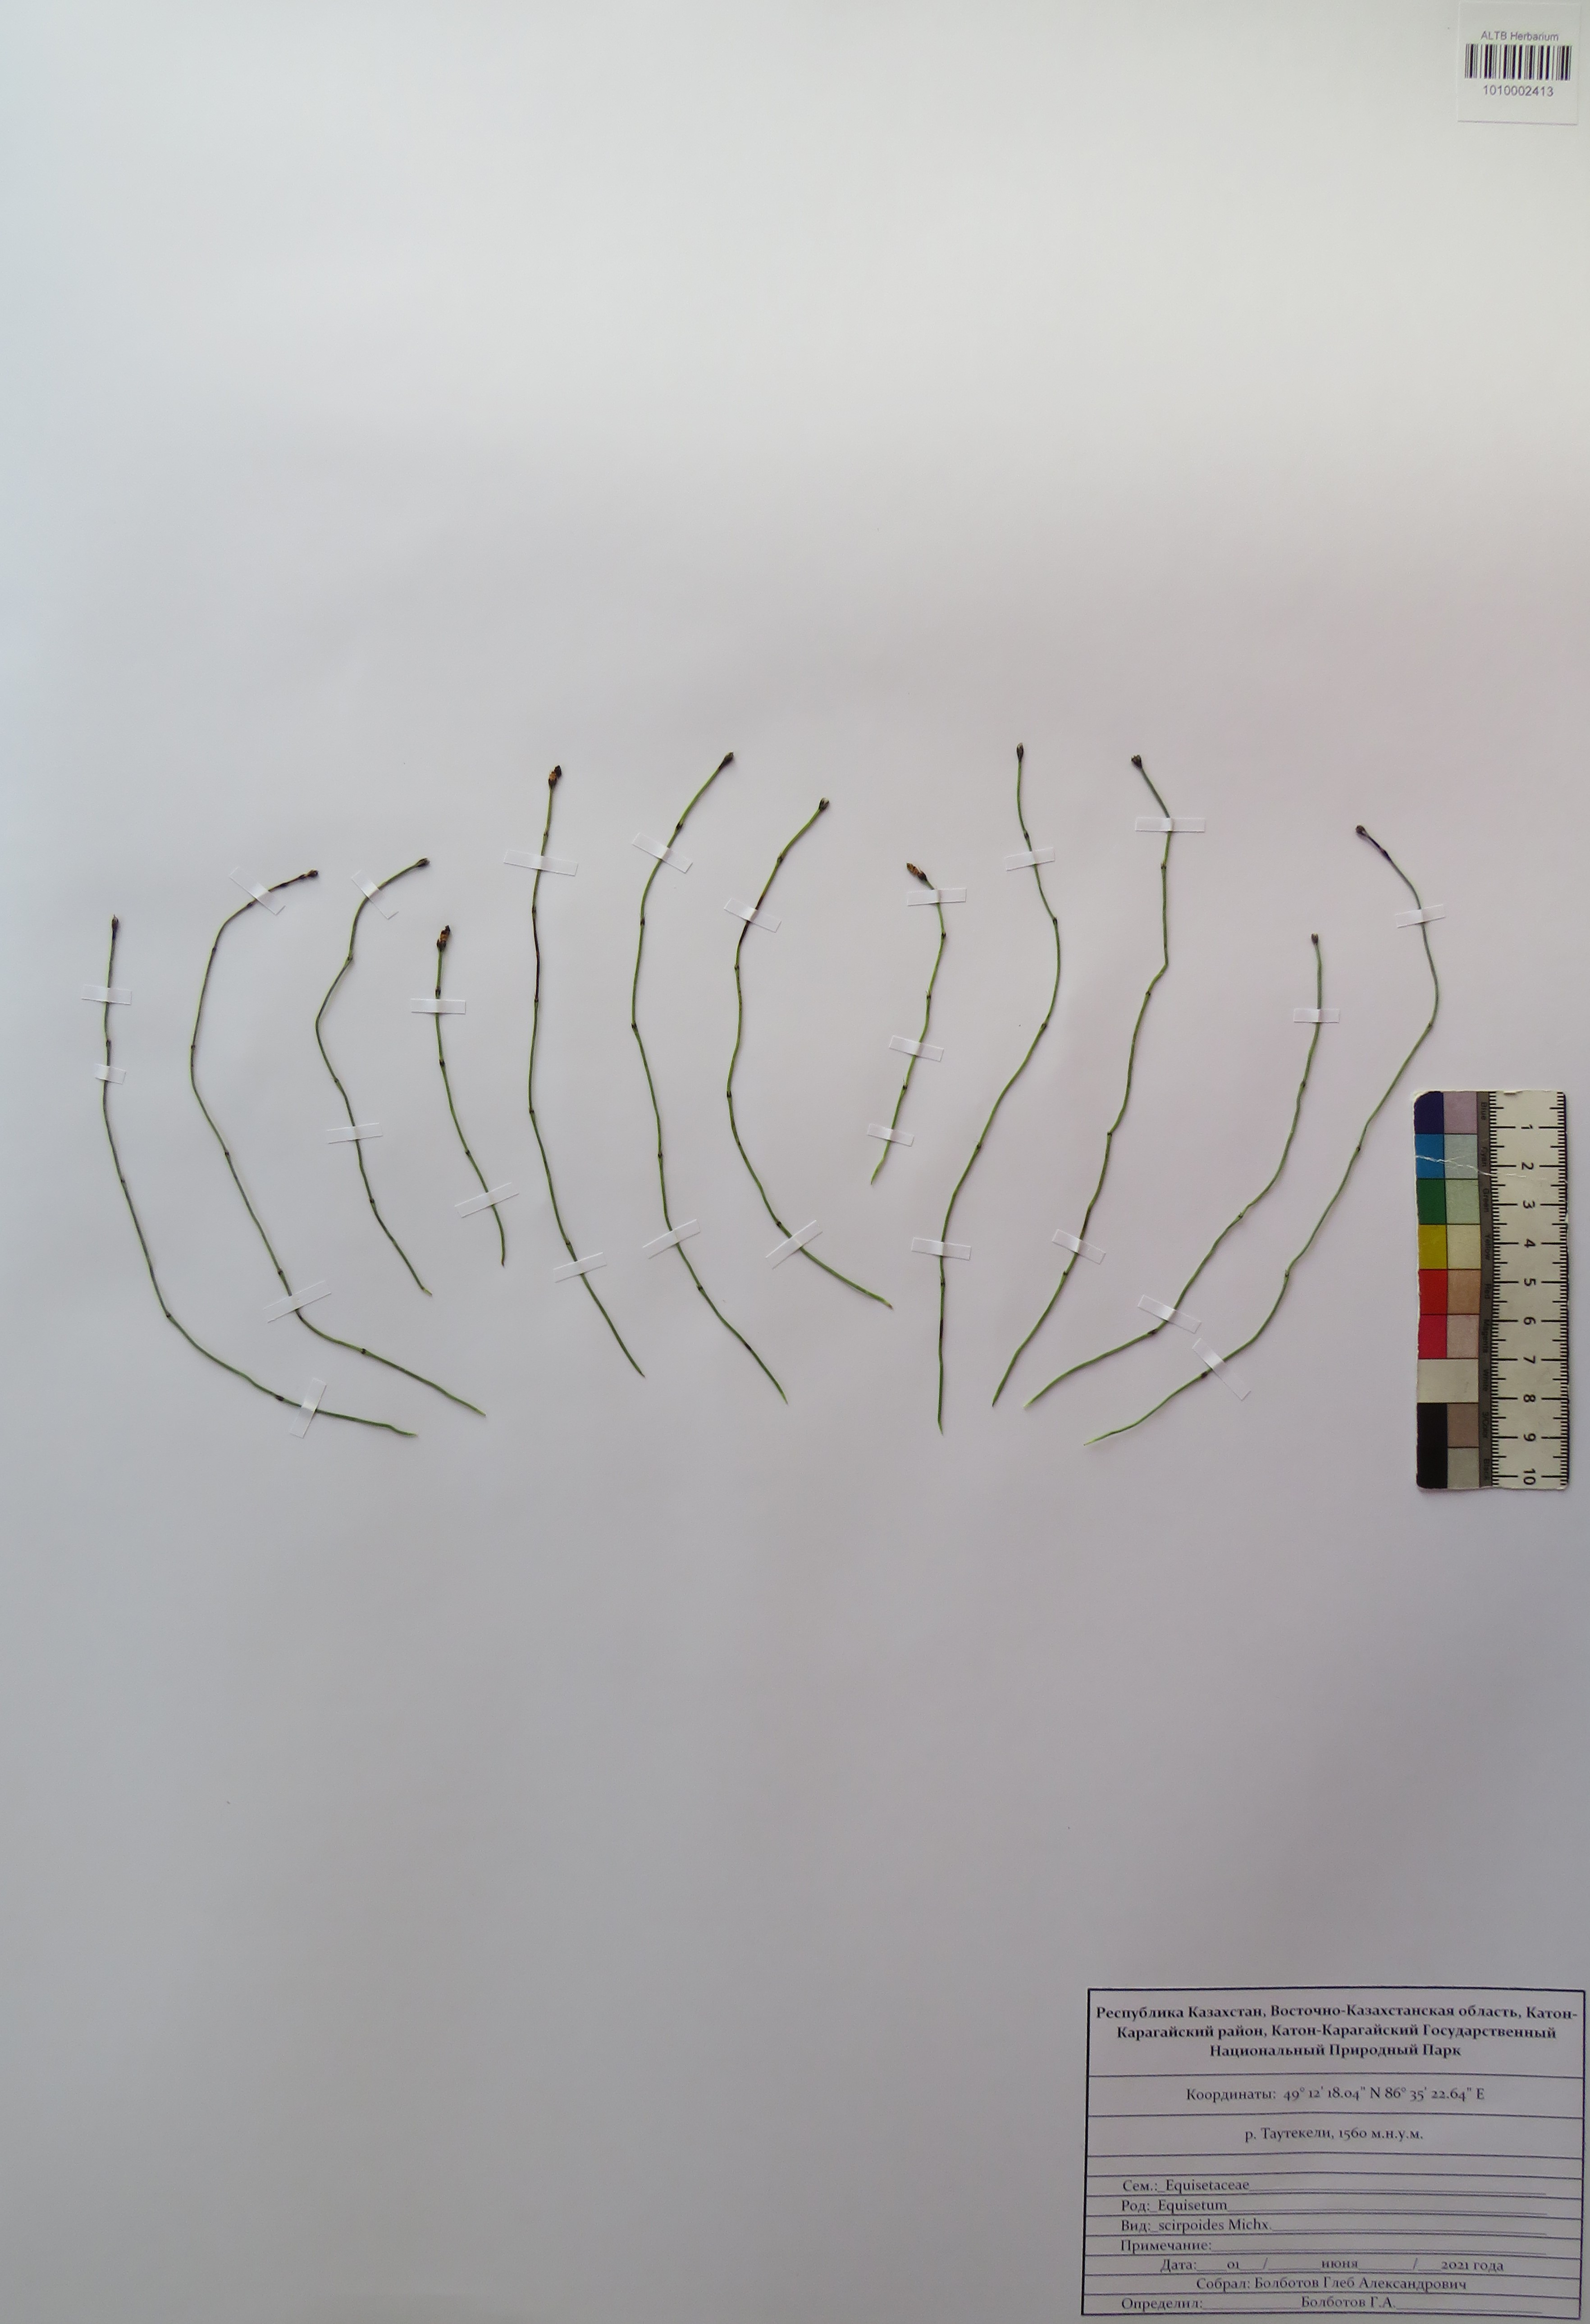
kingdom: Plantae
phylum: Tracheophyta
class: Polypodiopsida
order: Equisetales
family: Equisetaceae
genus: Equisetum
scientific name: Equisetum scirpoides
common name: Delicate horsetail
